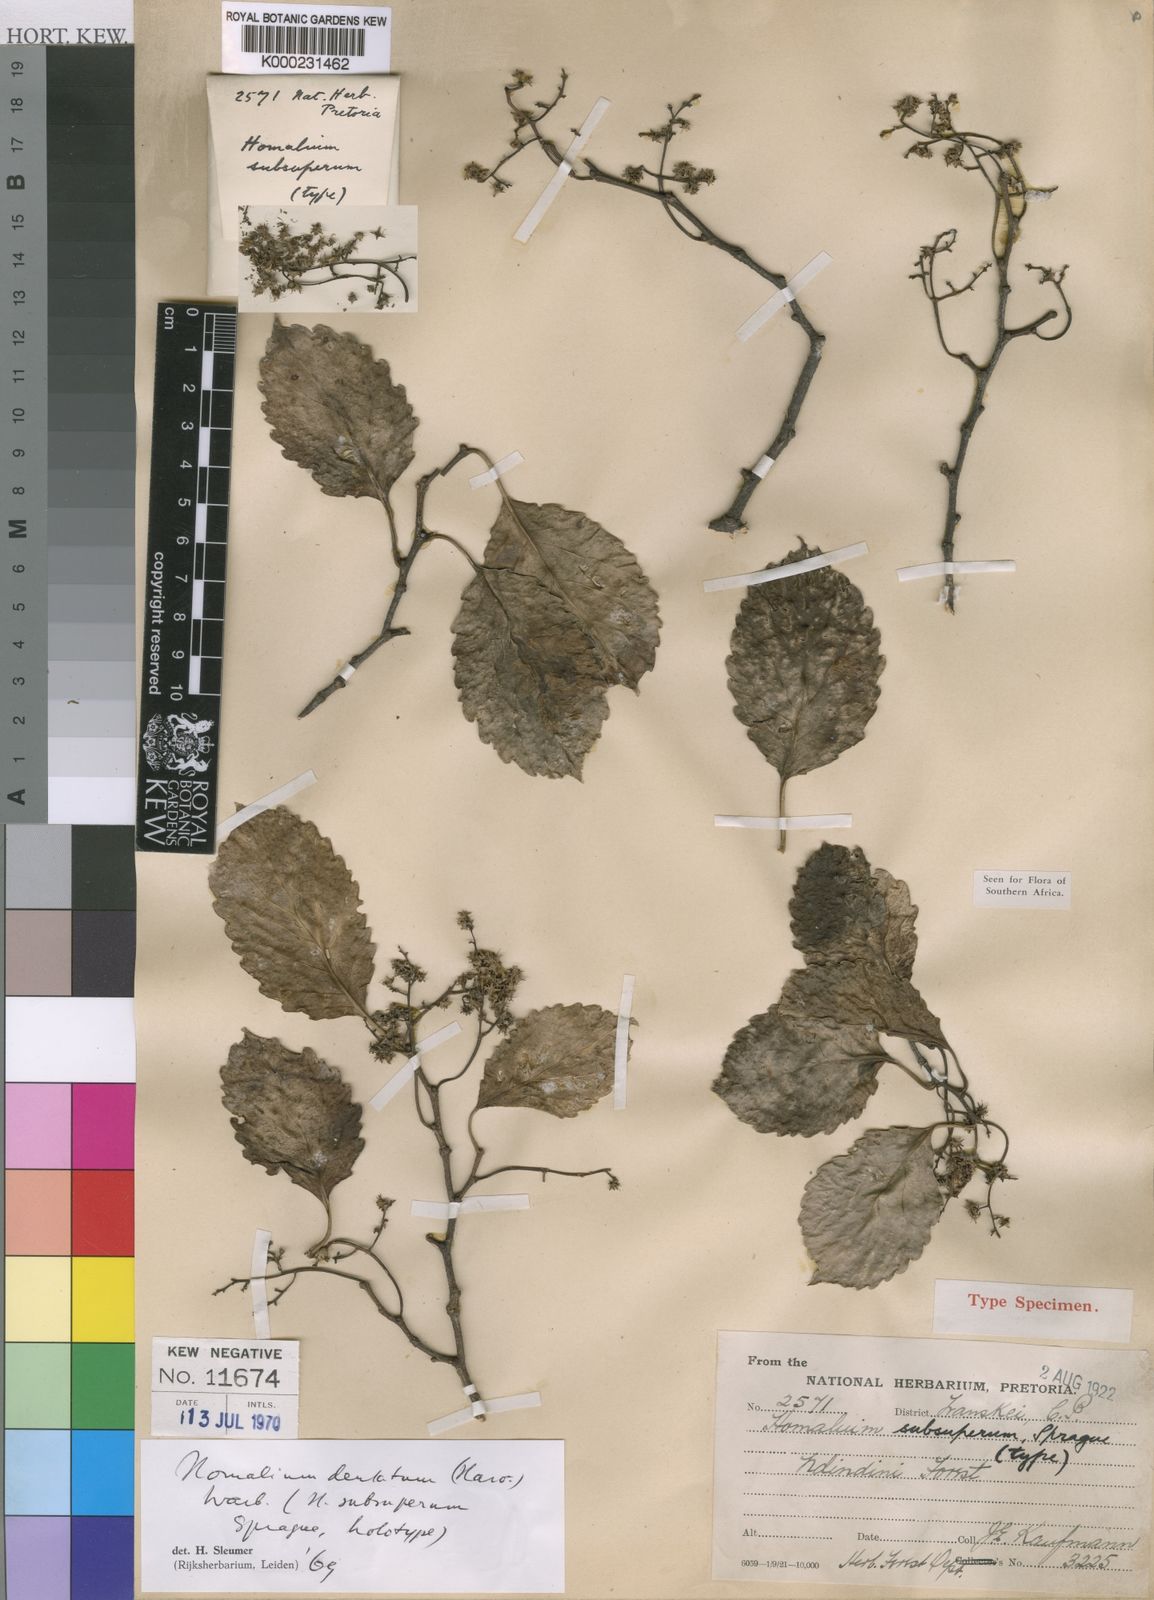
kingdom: Plantae
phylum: Tracheophyta
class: Magnoliopsida
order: Malpighiales
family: Salicaceae
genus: Homalium
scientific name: Homalium dentatum
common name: Brown ironwood
